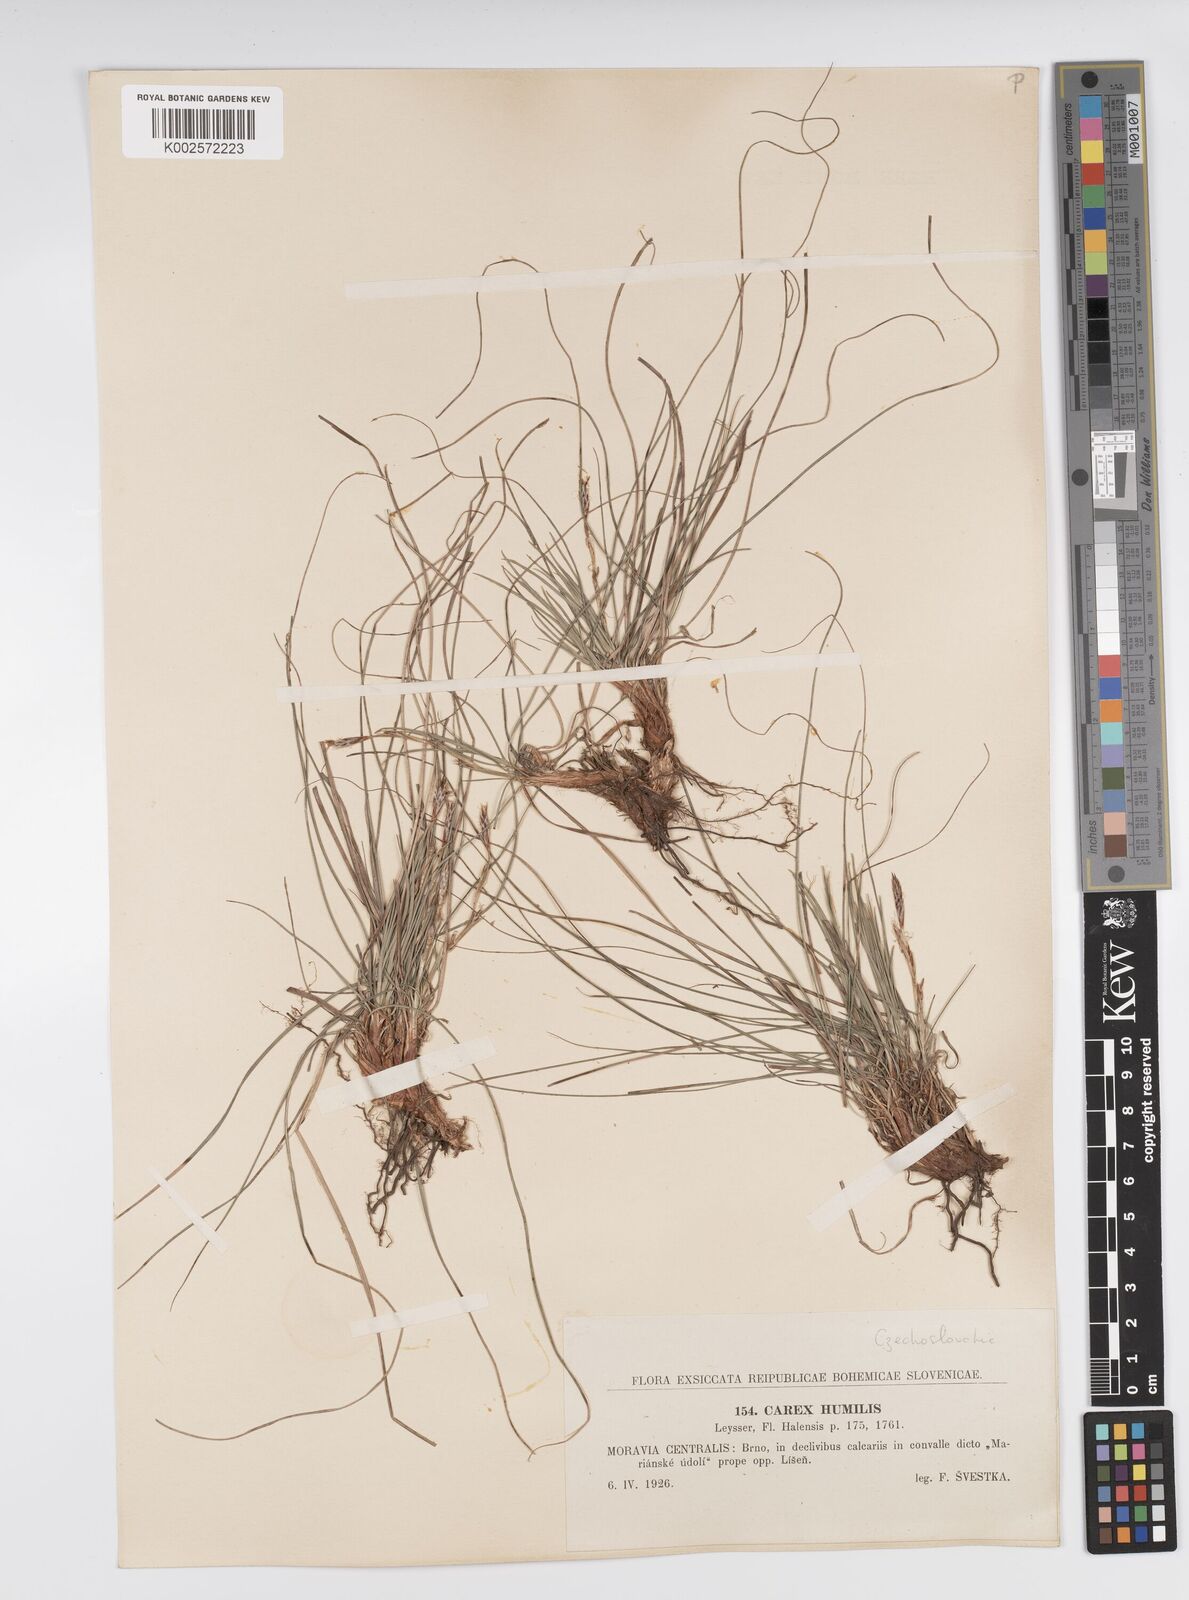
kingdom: Plantae
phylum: Tracheophyta
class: Liliopsida
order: Poales
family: Cyperaceae
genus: Carex
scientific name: Carex humilis
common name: Dwarf sedge
